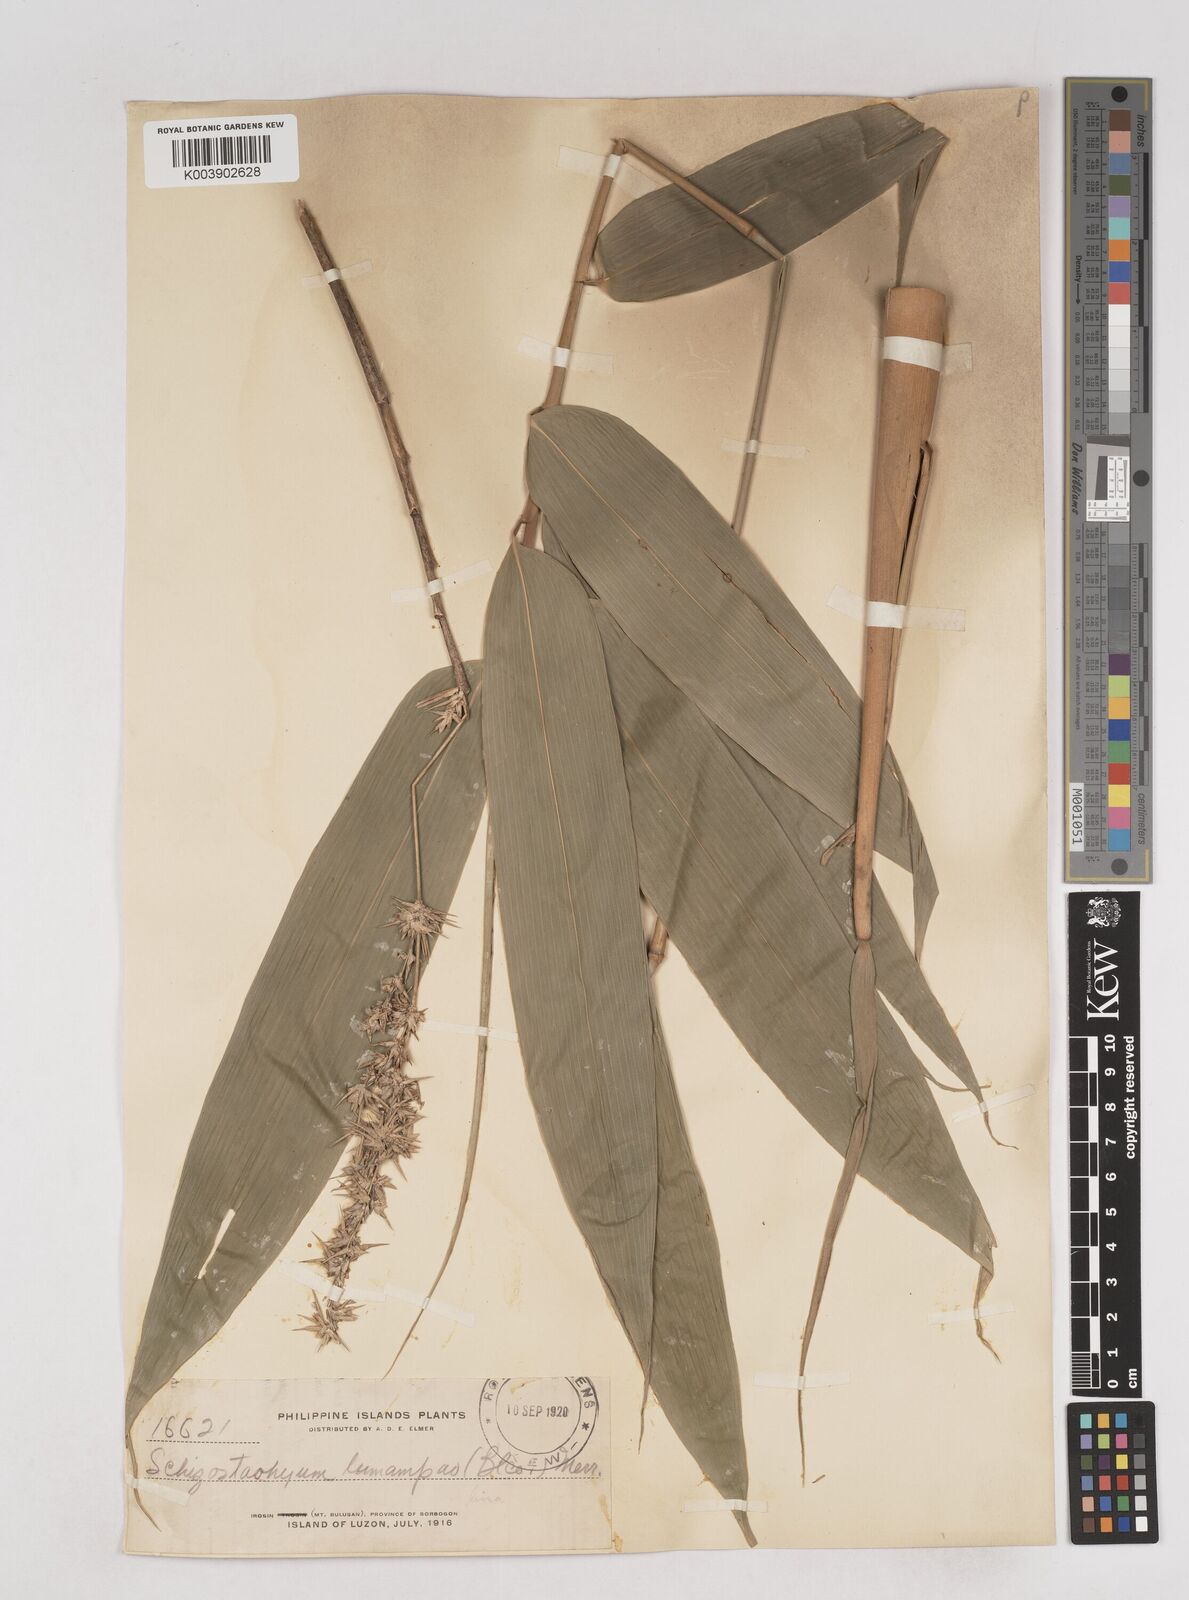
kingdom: Plantae
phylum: Tracheophyta
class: Liliopsida
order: Poales
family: Poaceae
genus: Schizostachyum
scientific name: Schizostachyum lima
